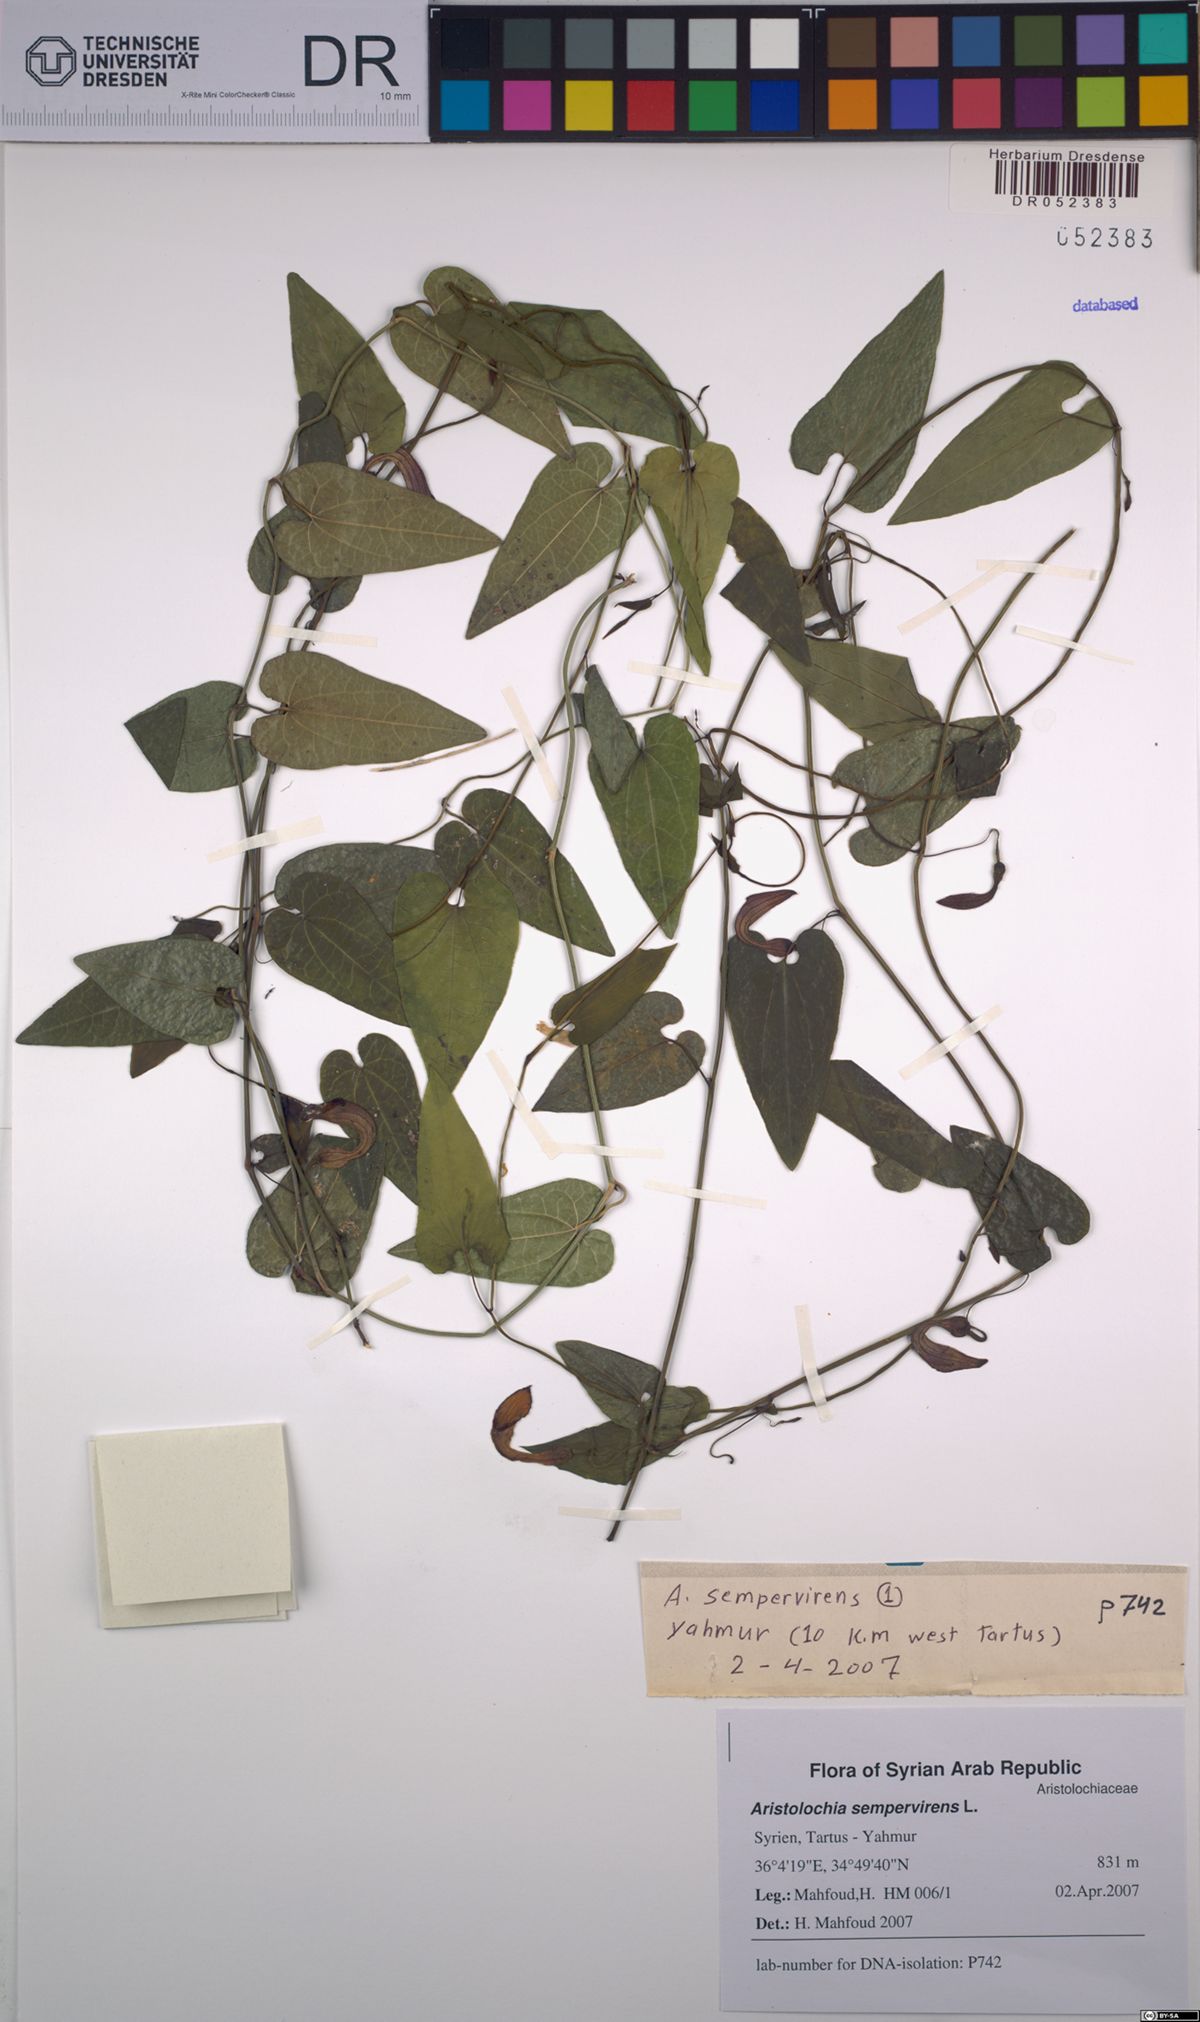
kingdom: Plantae
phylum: Tracheophyta
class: Magnoliopsida
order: Piperales
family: Aristolochiaceae
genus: Aristolochia
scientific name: Aristolochia sempervirens
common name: Long birthwort
